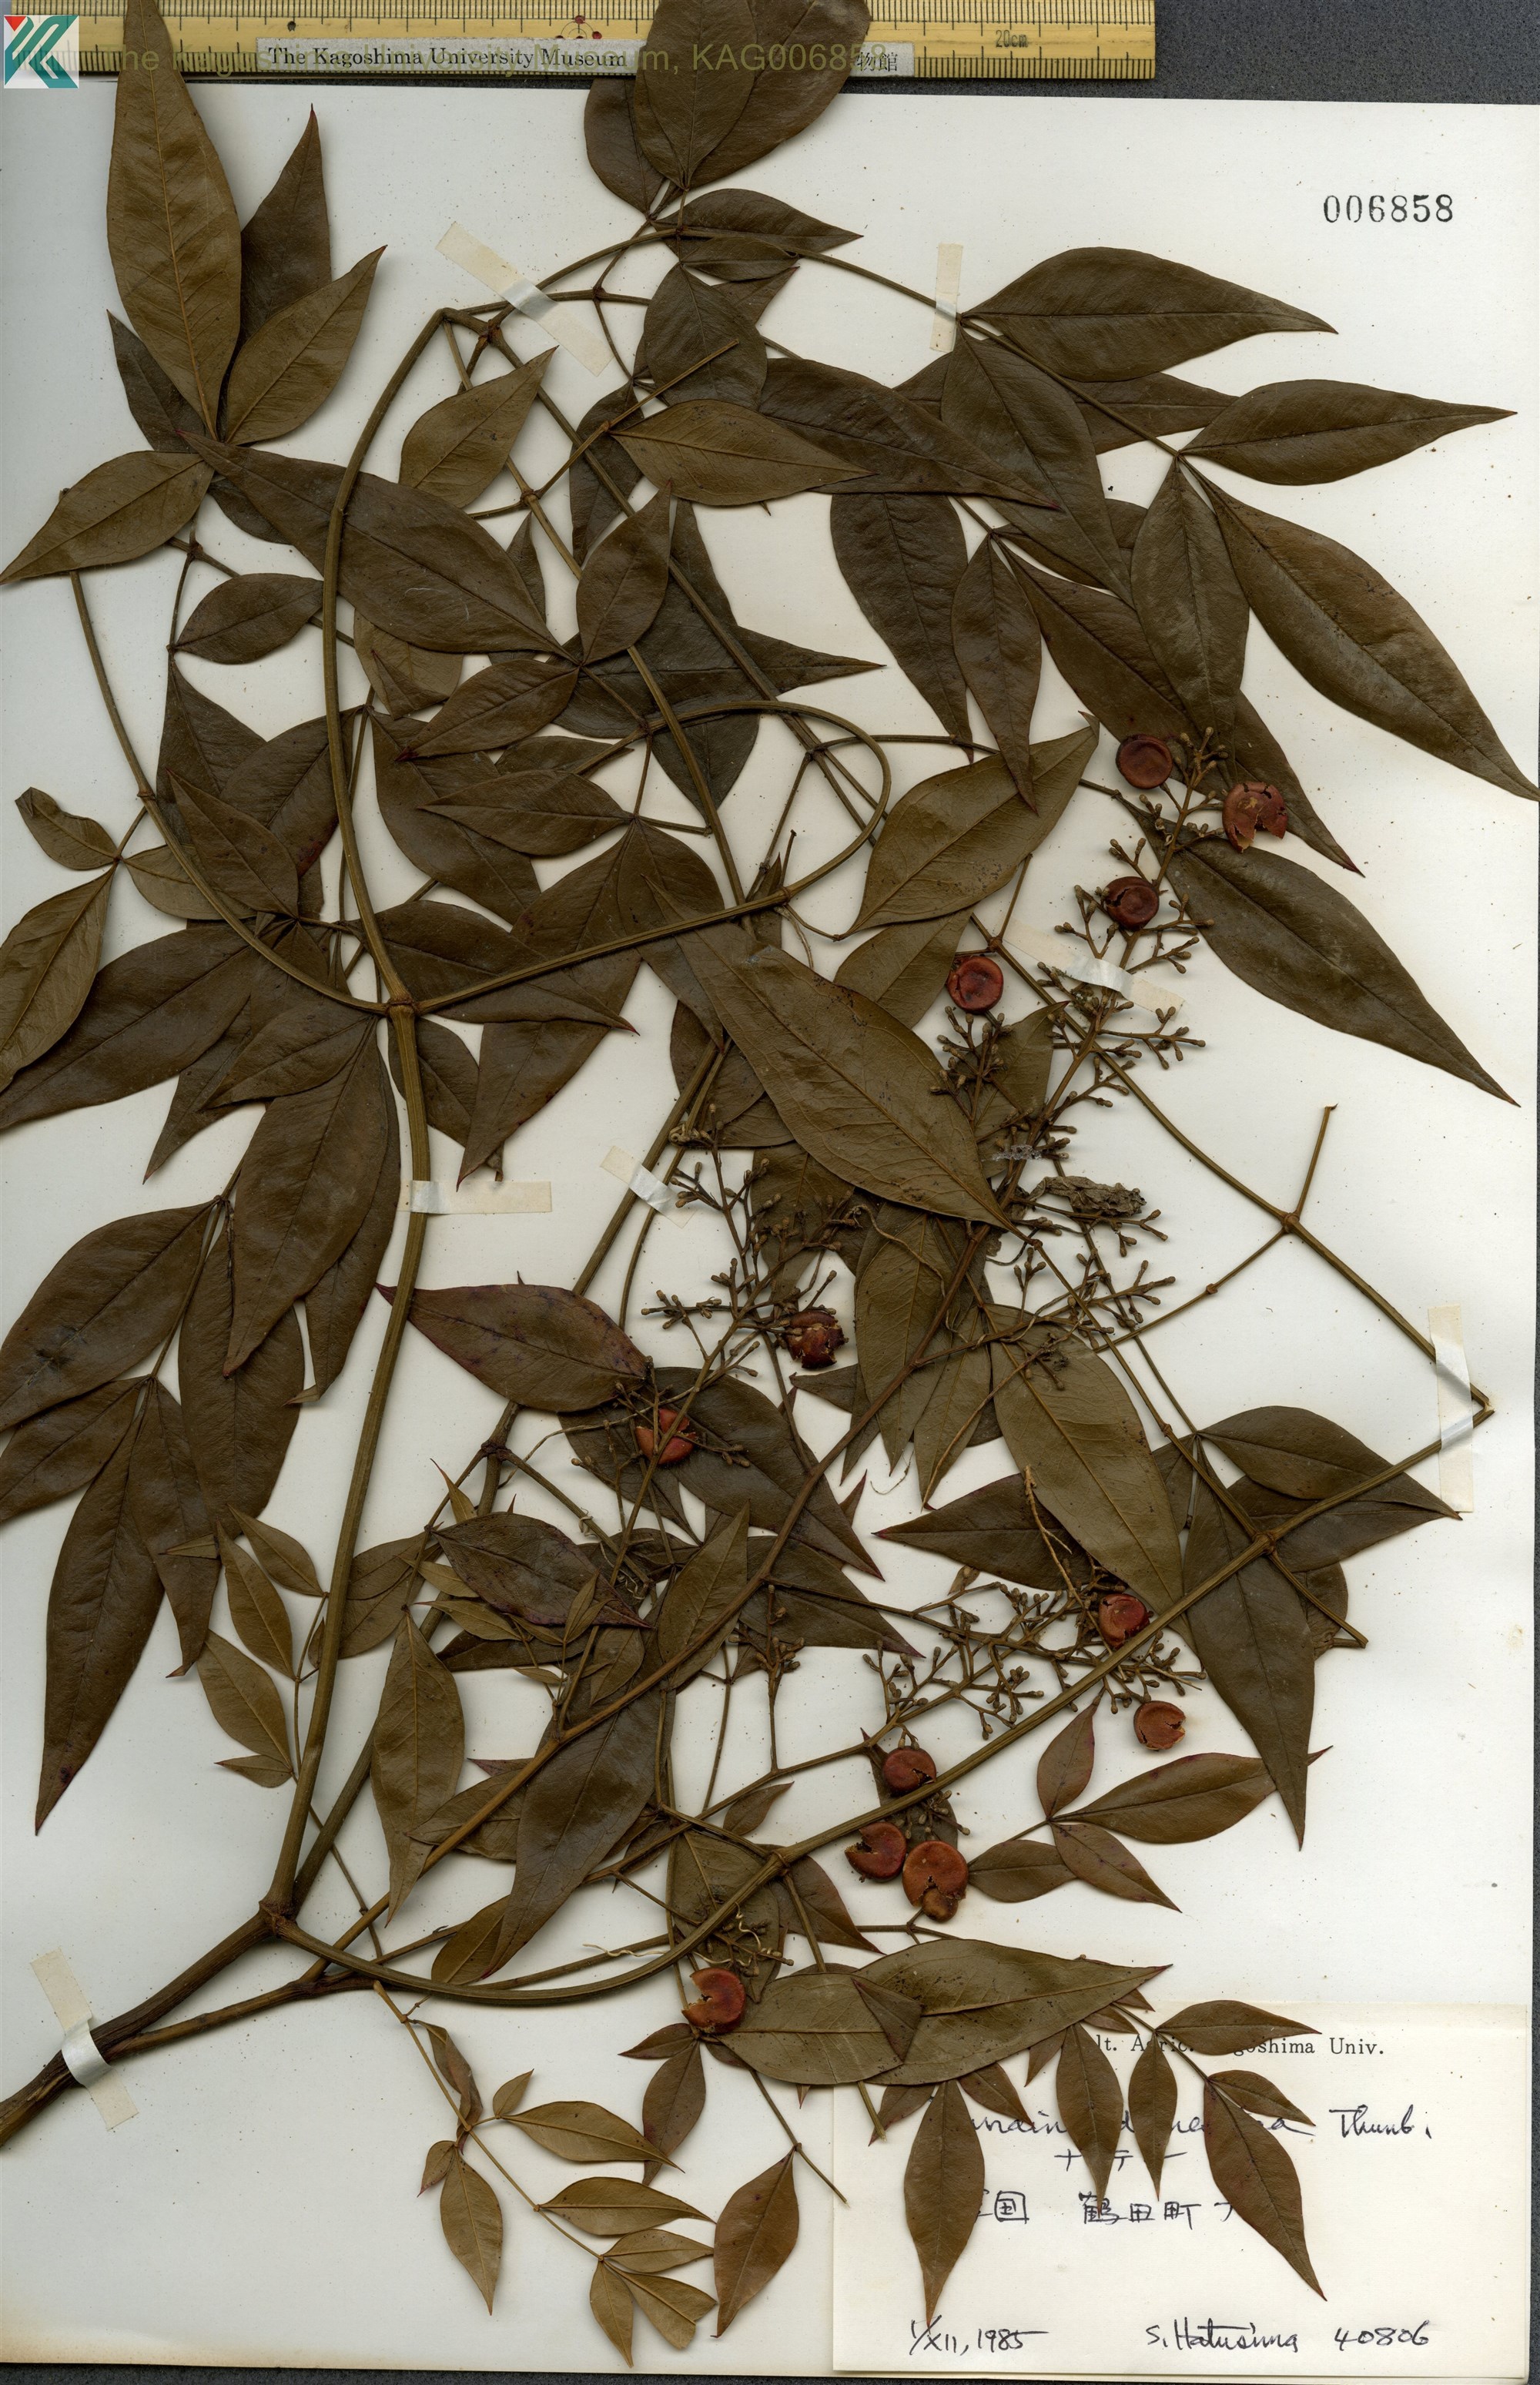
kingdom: Plantae
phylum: Tracheophyta
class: Magnoliopsida
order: Ranunculales
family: Berberidaceae
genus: Nandina
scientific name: Nandina domestica
